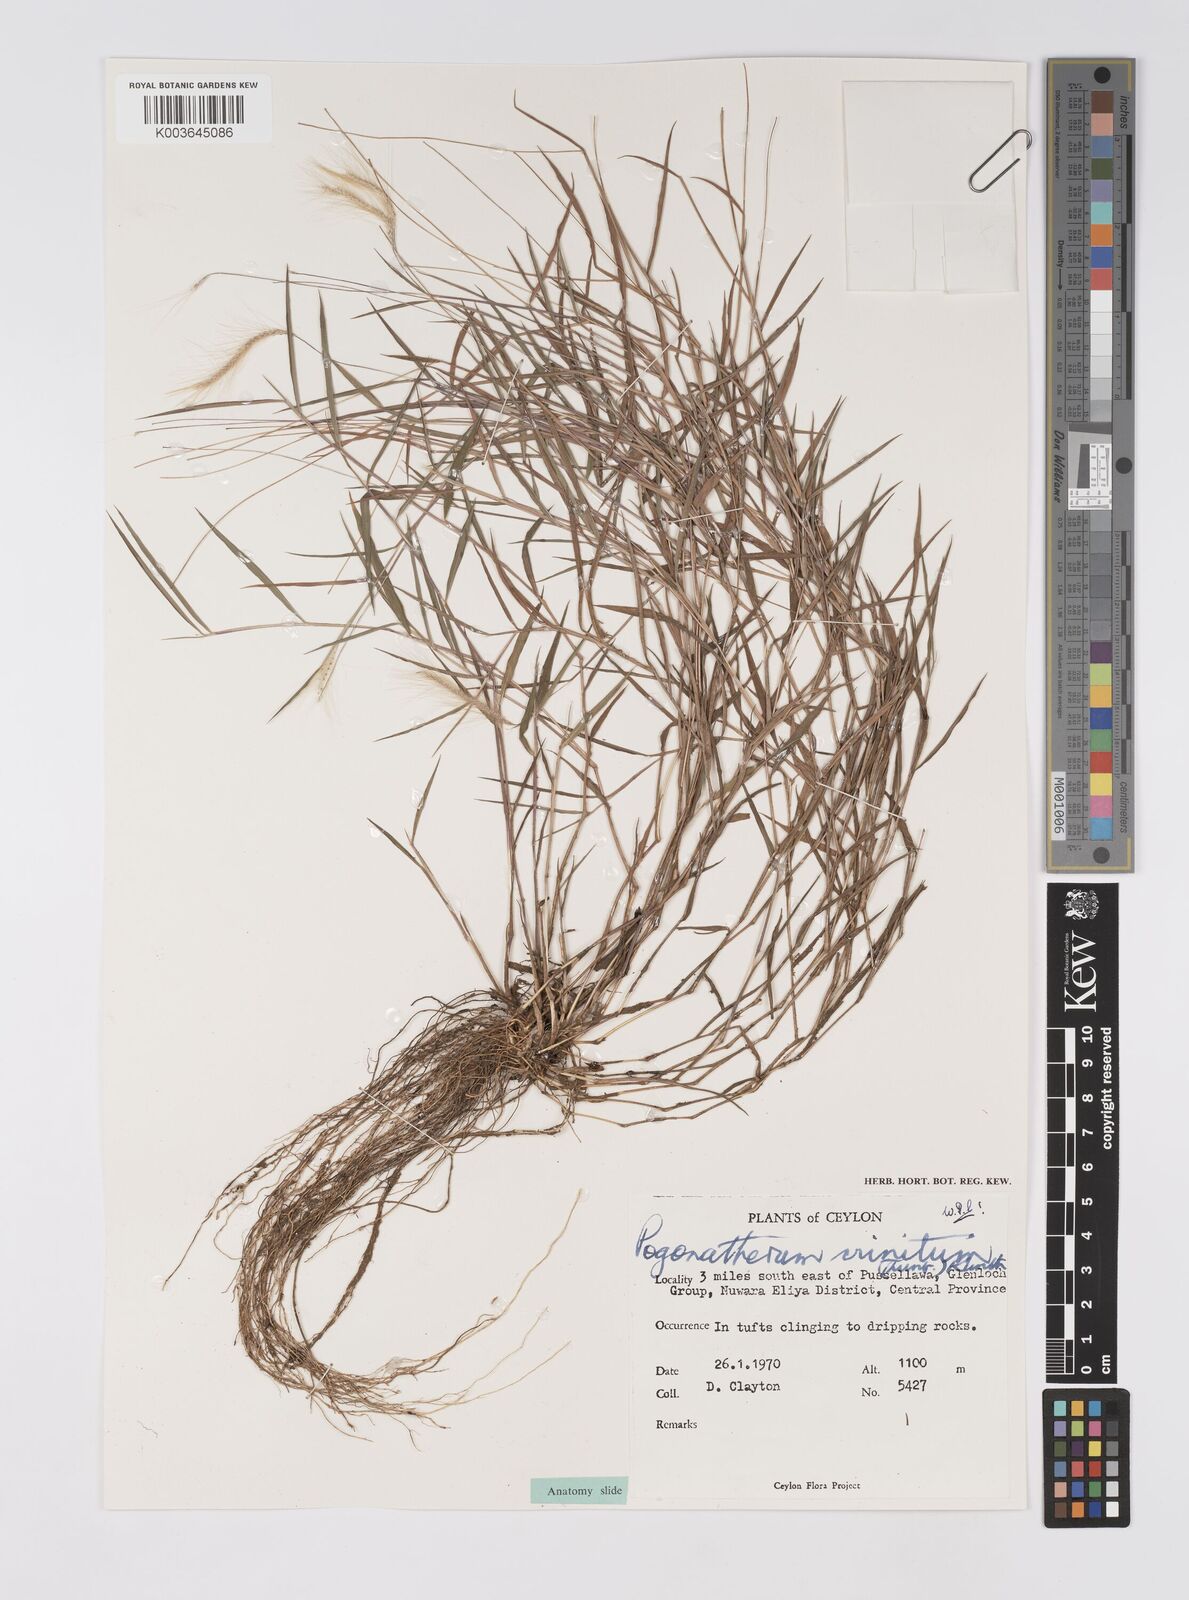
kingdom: Plantae
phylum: Tracheophyta
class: Liliopsida
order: Poales
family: Poaceae
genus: Pogonatherum
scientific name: Pogonatherum crinitum
